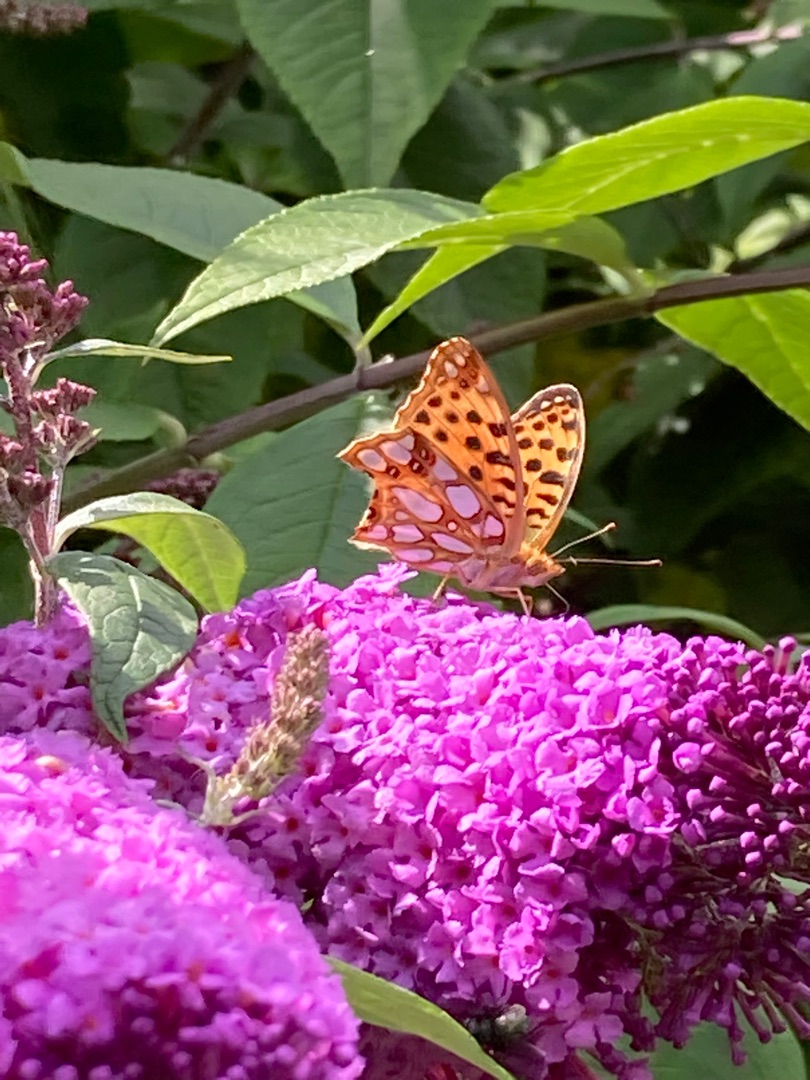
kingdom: Animalia
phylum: Arthropoda
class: Insecta
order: Lepidoptera
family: Nymphalidae
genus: Issoria
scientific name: Issoria lathonia
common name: Storplettet perlemorsommerfugl
